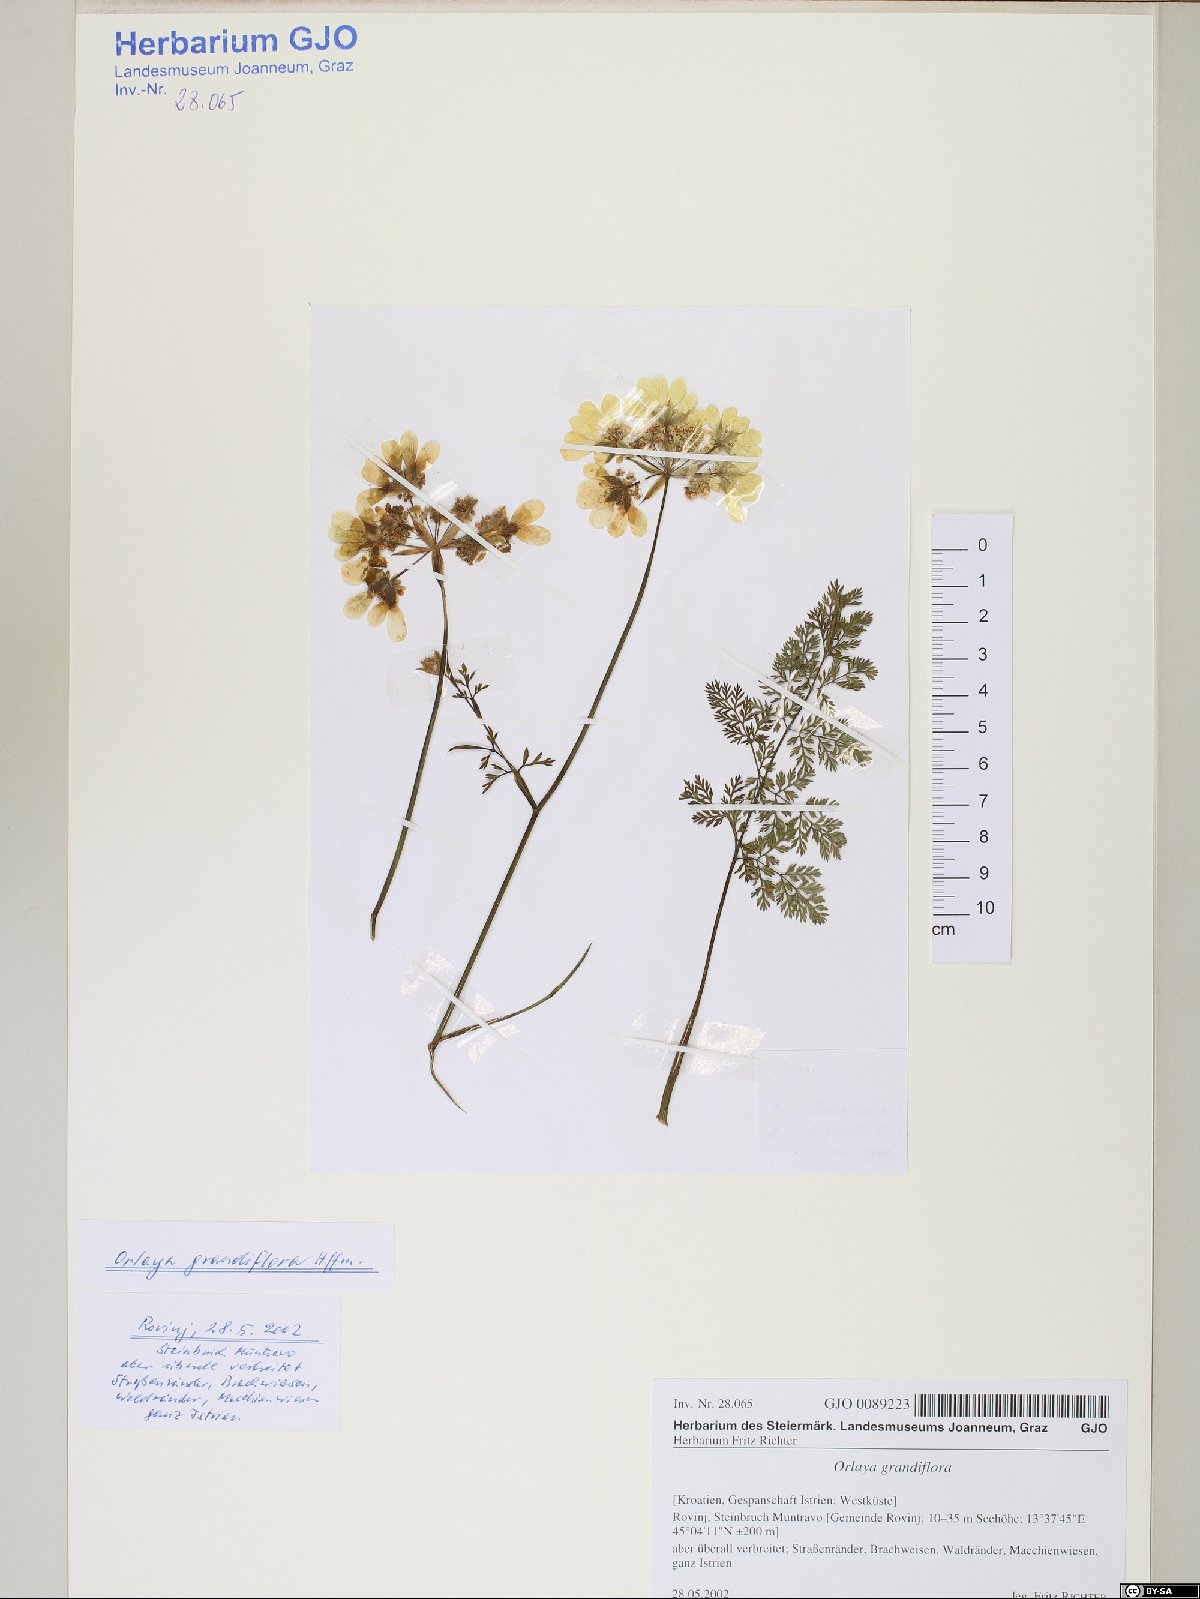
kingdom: Plantae
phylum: Tracheophyta
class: Magnoliopsida
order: Apiales
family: Apiaceae
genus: Orlaya
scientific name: Orlaya grandiflora
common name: White lace flower
